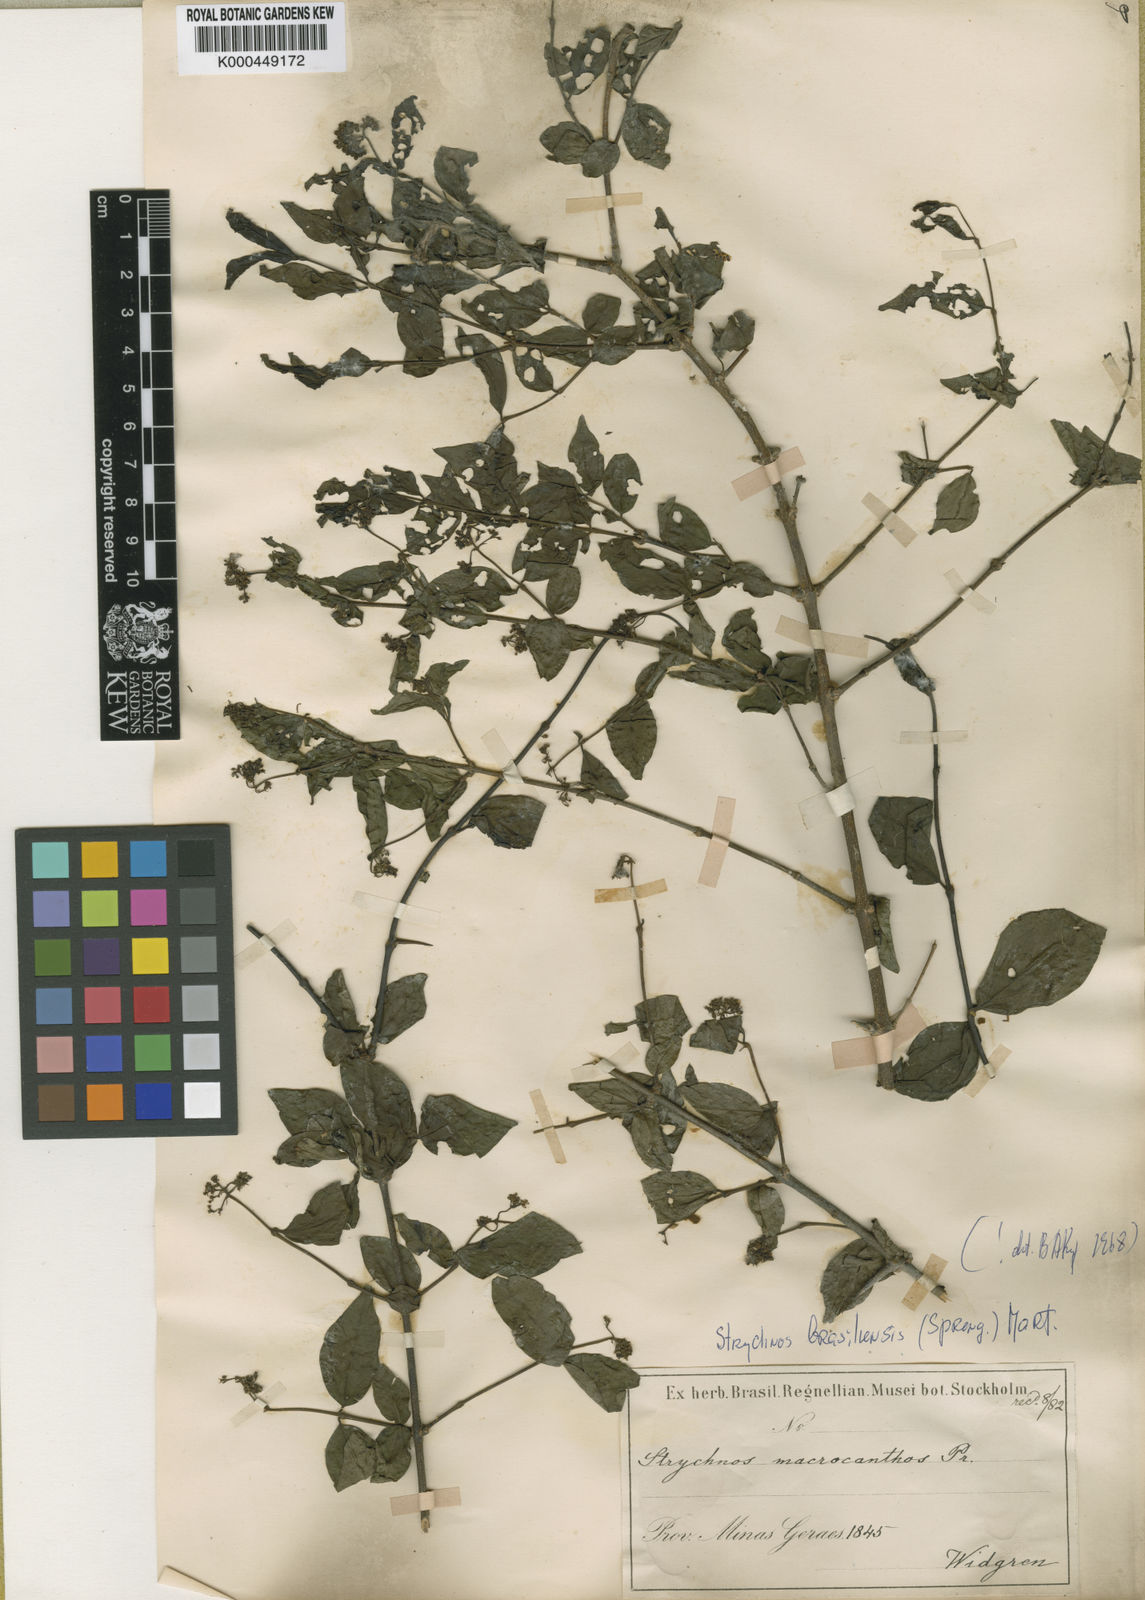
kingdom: Plantae
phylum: Tracheophyta
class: Magnoliopsida
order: Gentianales
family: Loganiaceae
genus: Strychnos
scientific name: Strychnos brasiliensis
